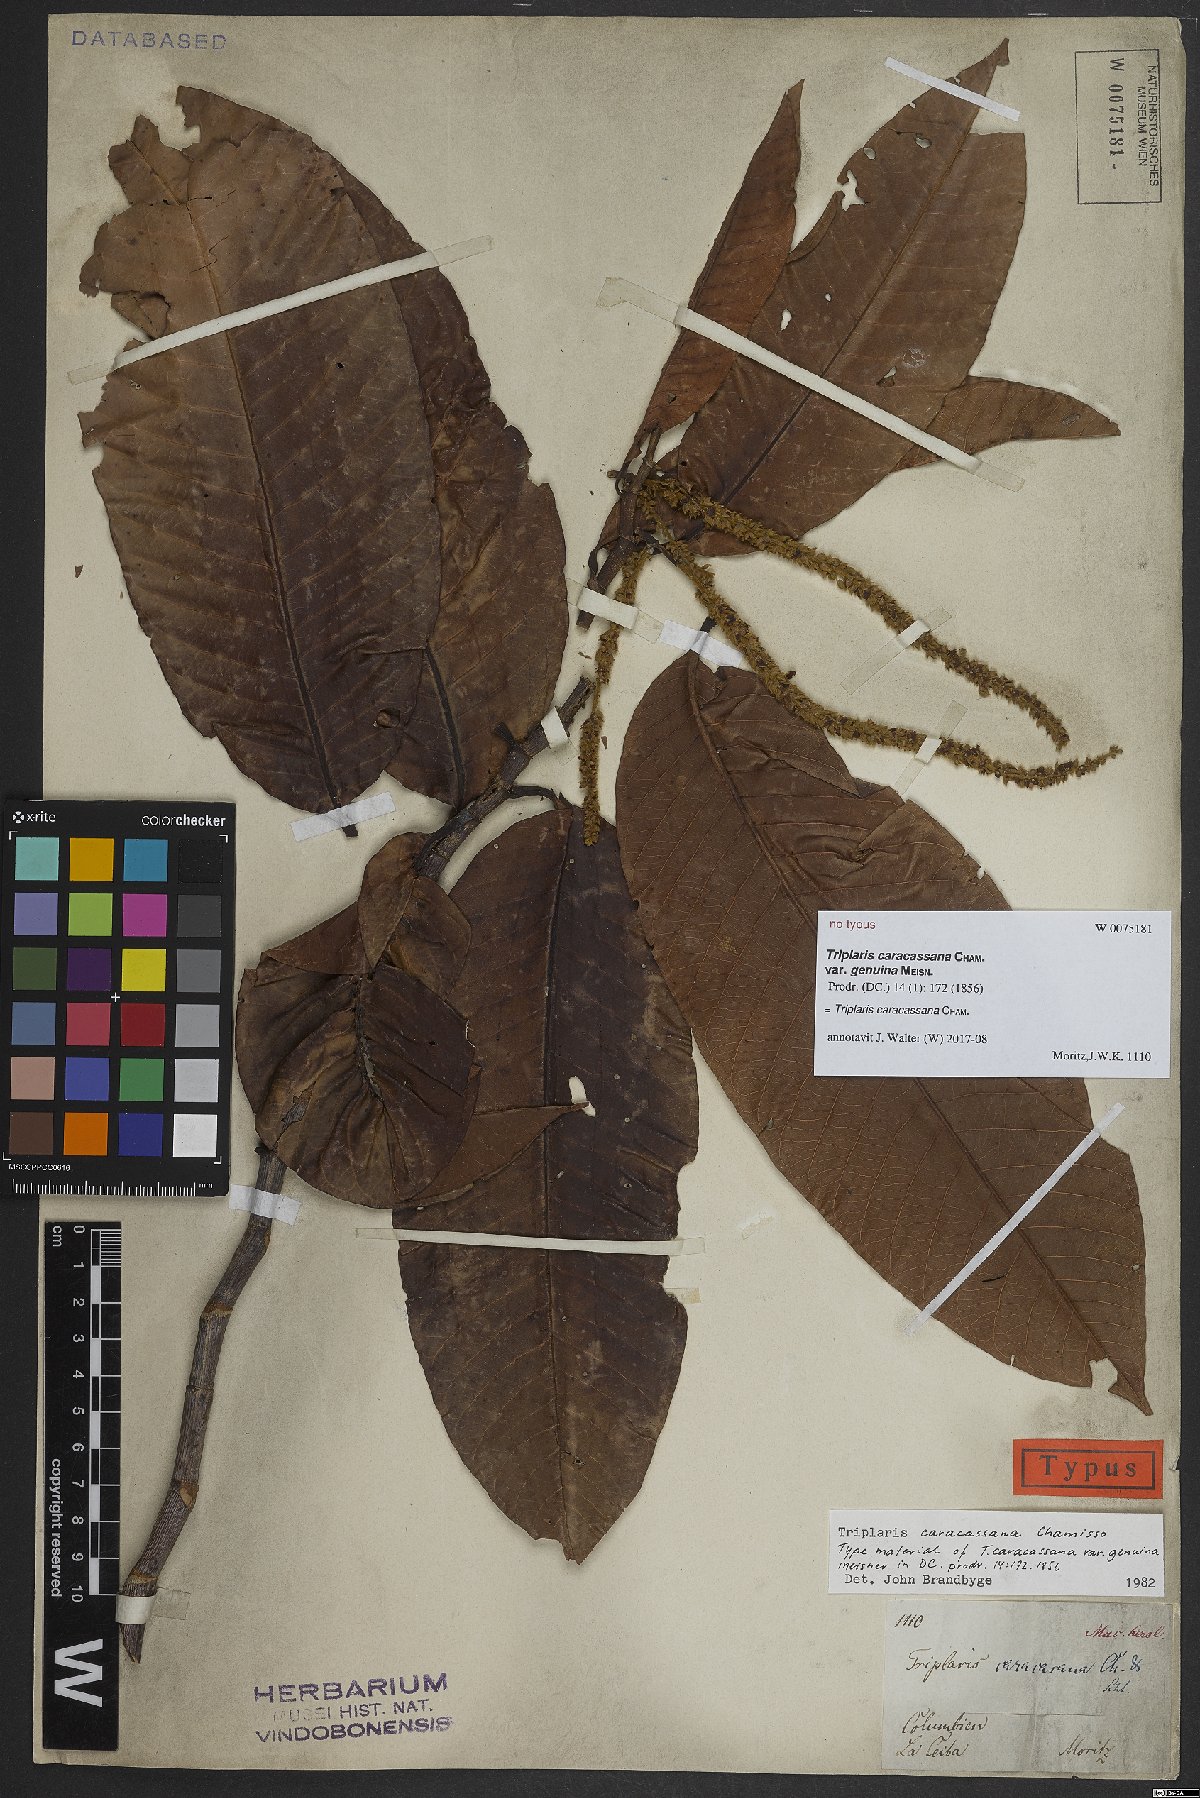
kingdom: Plantae
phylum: Tracheophyta
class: Magnoliopsida
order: Caryophyllales
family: Polygonaceae
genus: Triplaris
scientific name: Triplaris caracasana
